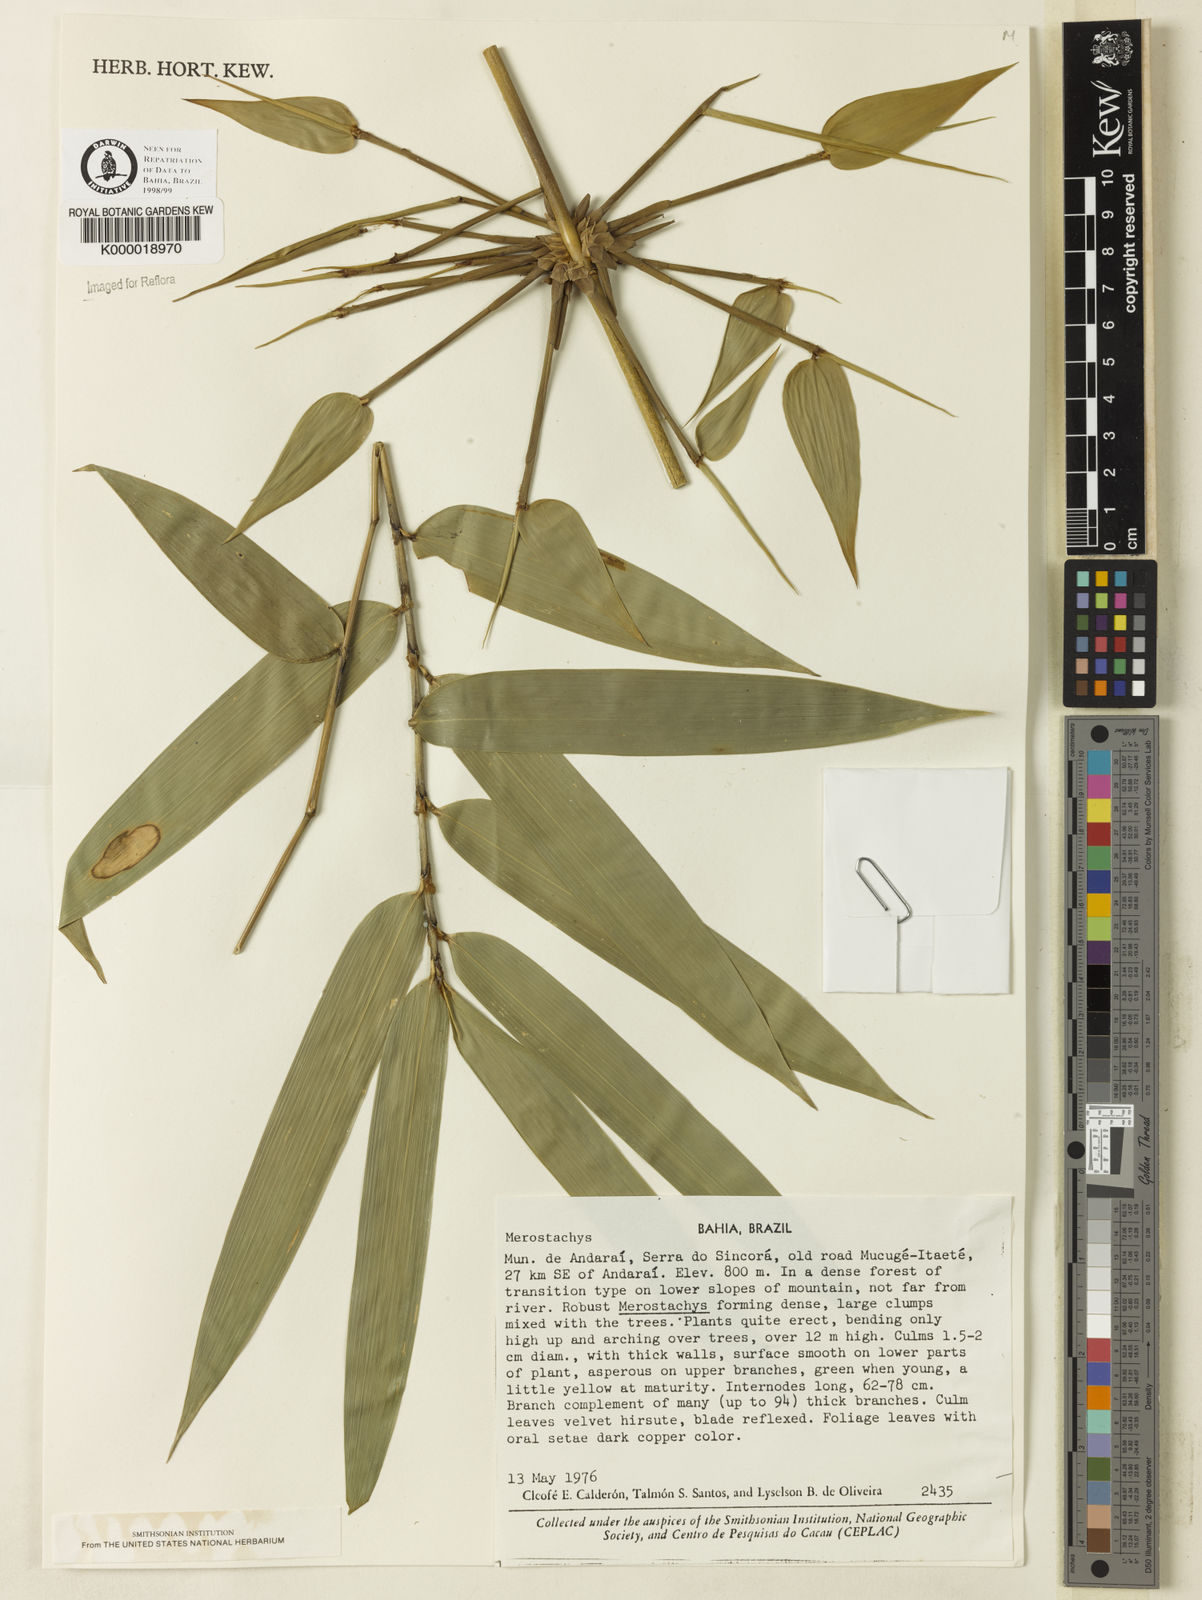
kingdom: Plantae
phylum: Tracheophyta
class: Liliopsida
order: Poales
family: Poaceae
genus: Merostachys
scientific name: Merostachys
